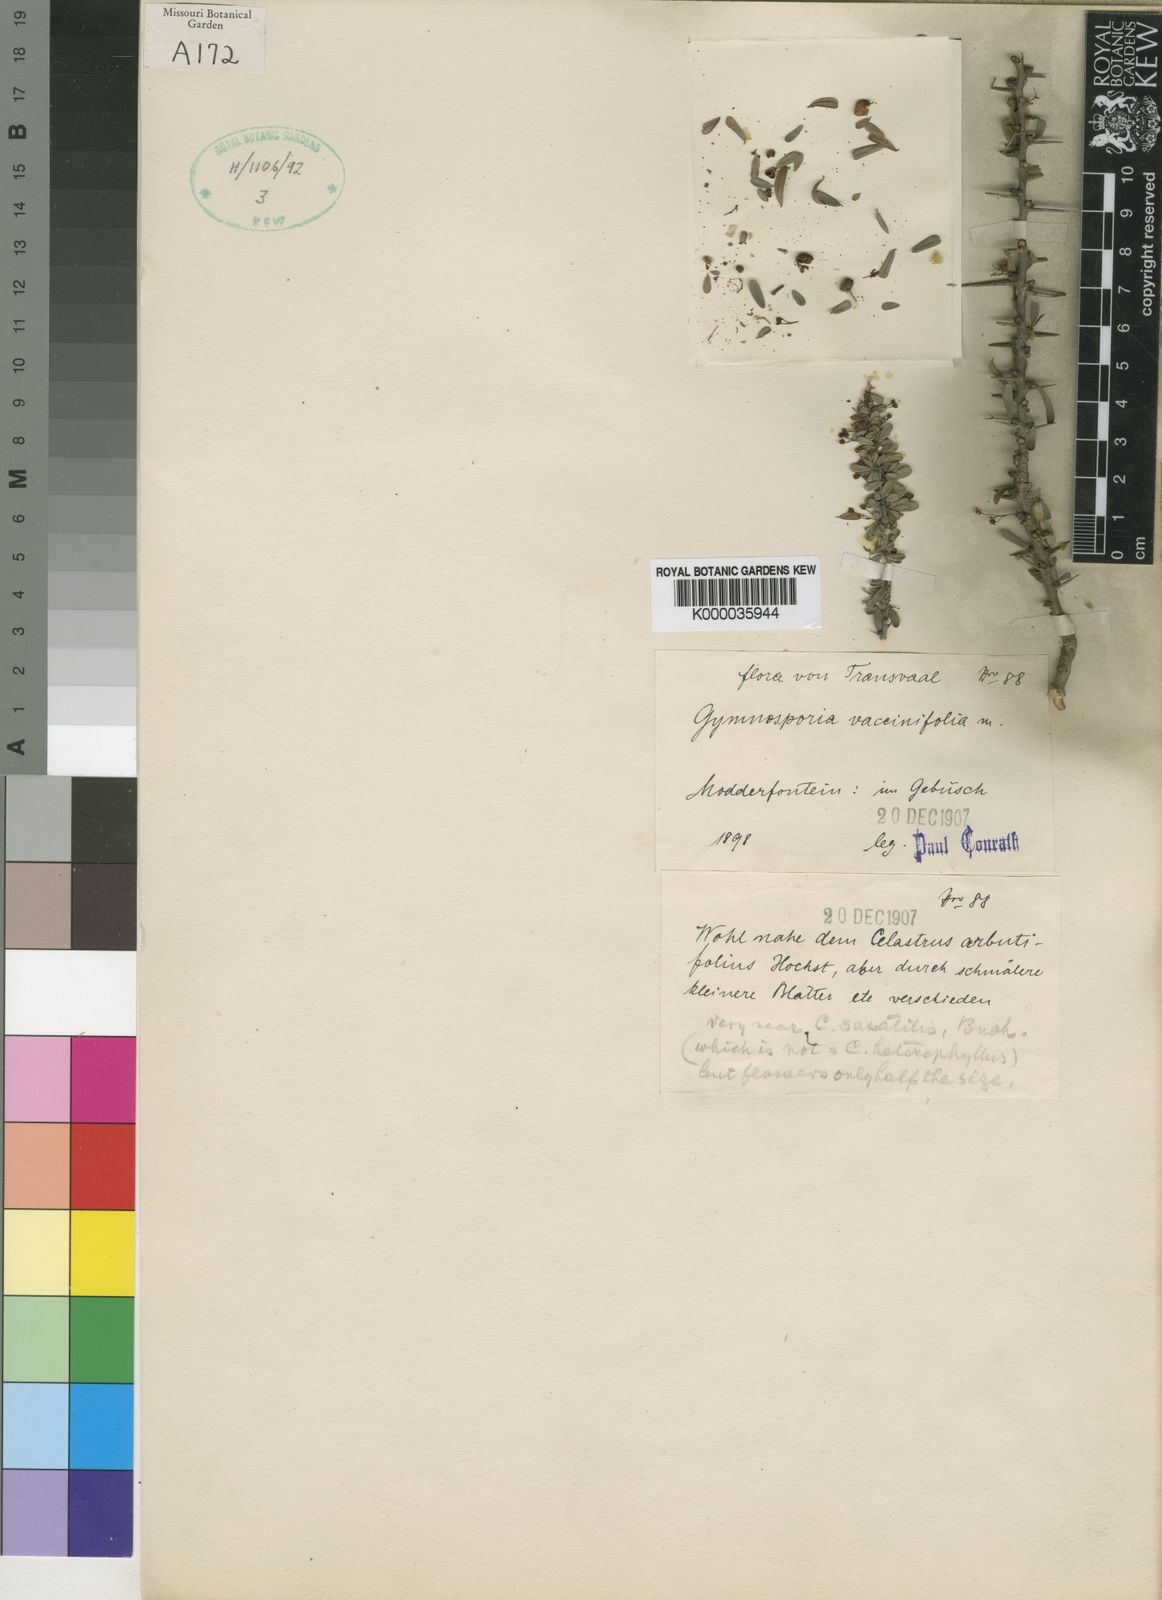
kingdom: Plantae
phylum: Tracheophyta
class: Magnoliopsida
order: Celastrales
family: Celastraceae
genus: Gymnosporia
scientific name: Gymnosporia polyacantha
